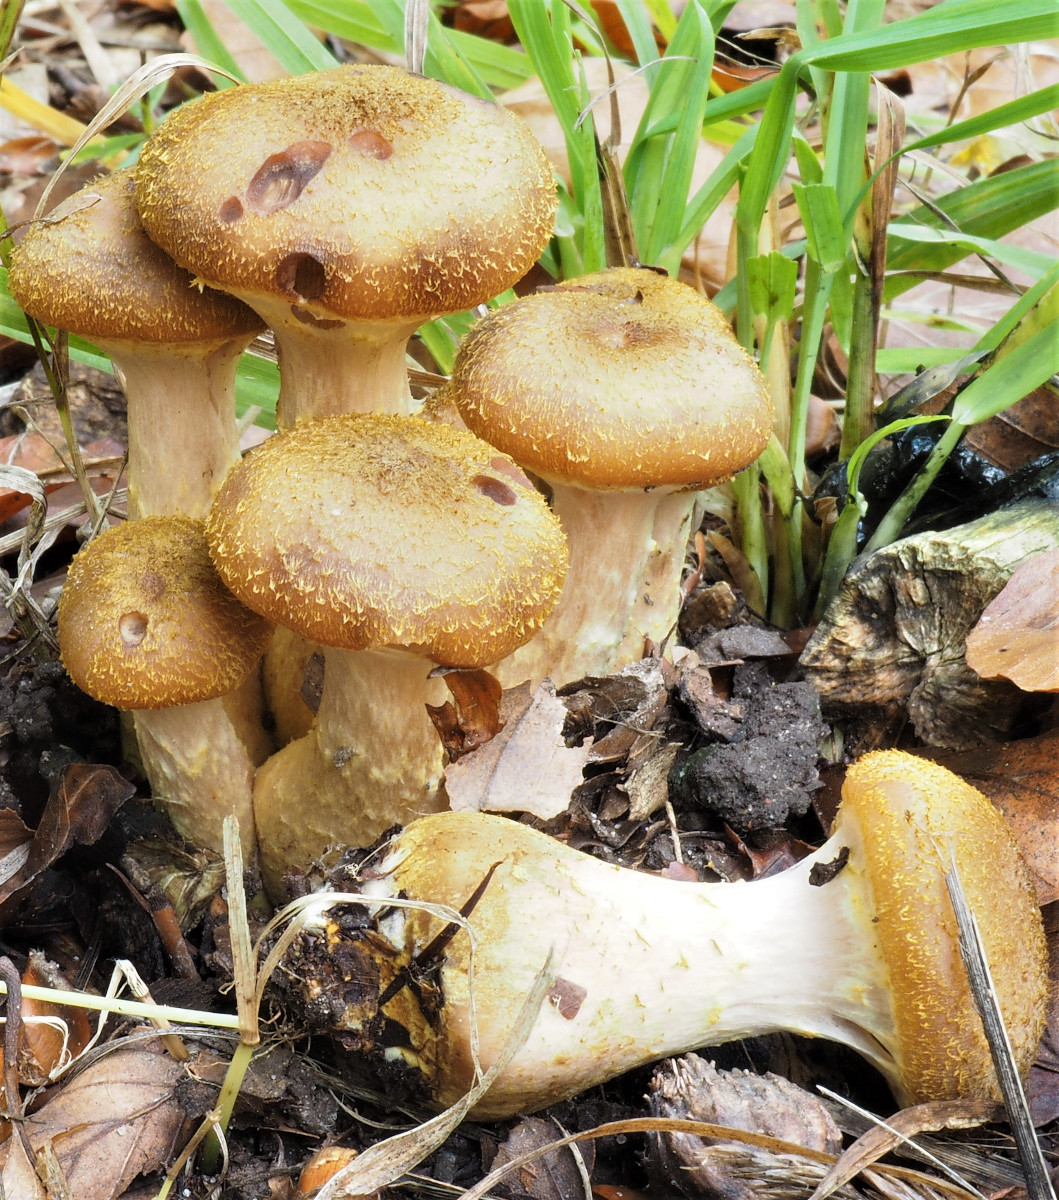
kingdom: Fungi
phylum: Basidiomycota
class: Agaricomycetes
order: Agaricales
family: Physalacriaceae
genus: Armillaria
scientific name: Armillaria lutea
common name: køllestokket honningsvamp
